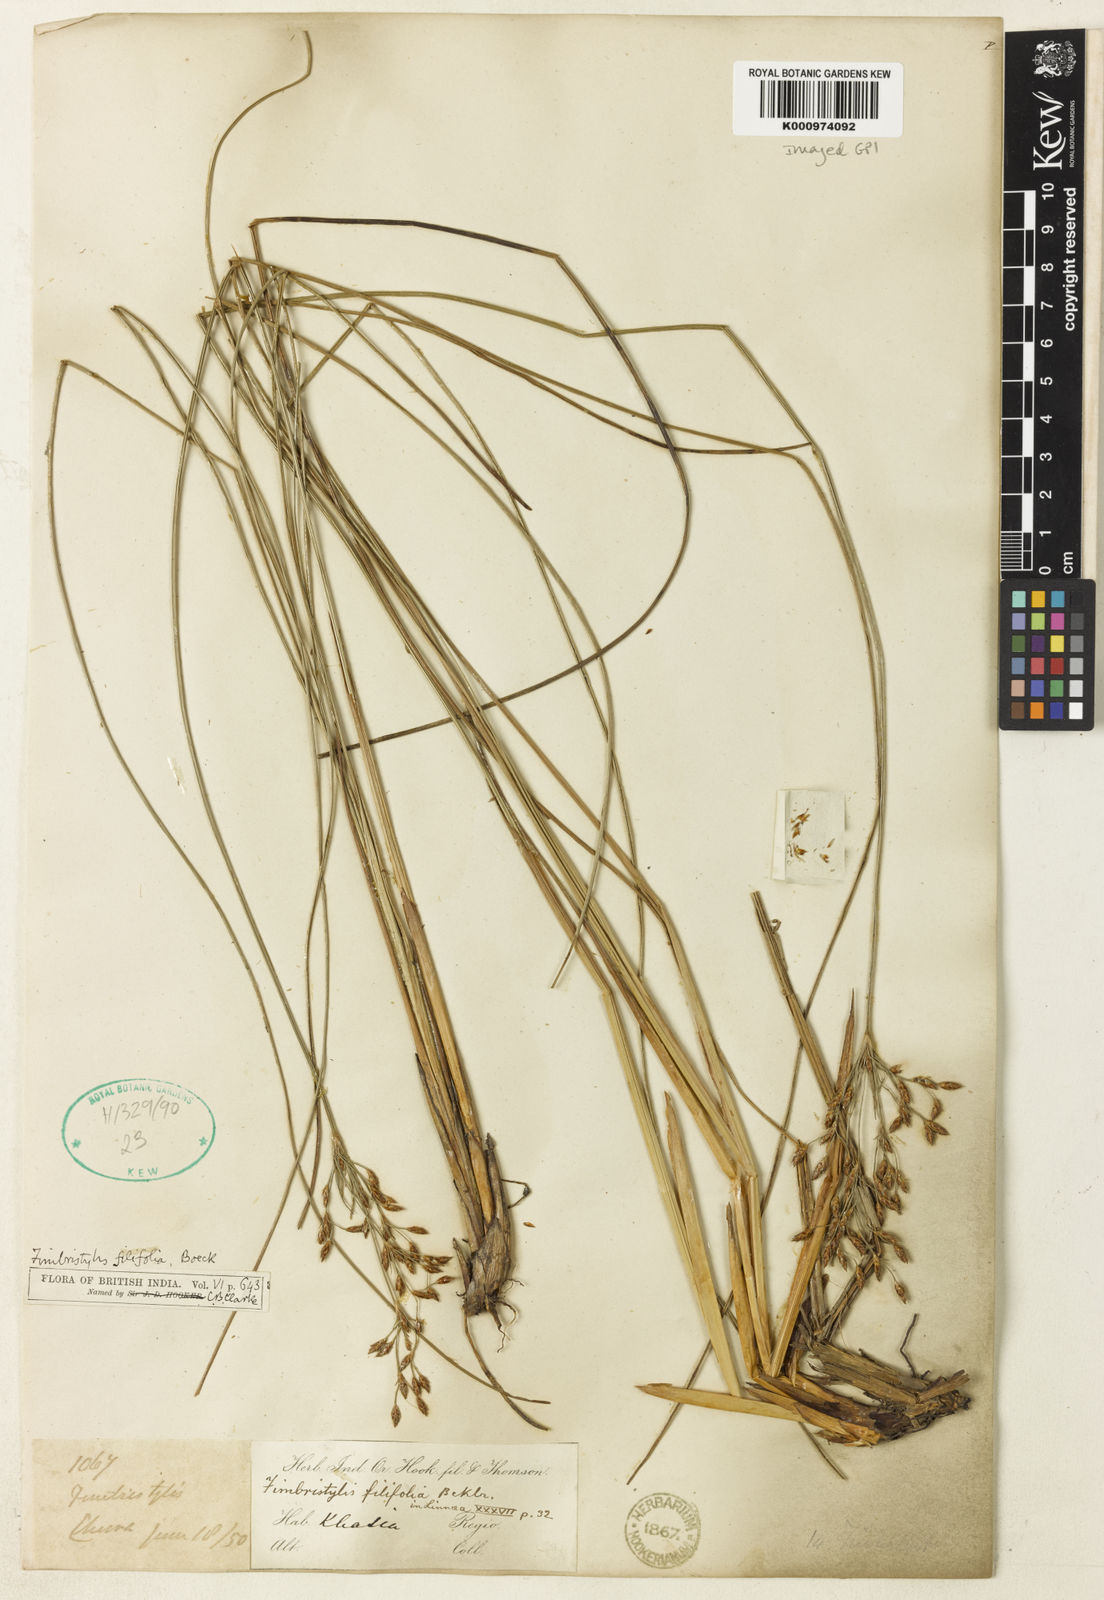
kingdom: Plantae
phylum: Tracheophyta
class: Liliopsida
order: Poales
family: Cyperaceae
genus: Fimbristylis
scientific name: Fimbristylis filifolia
